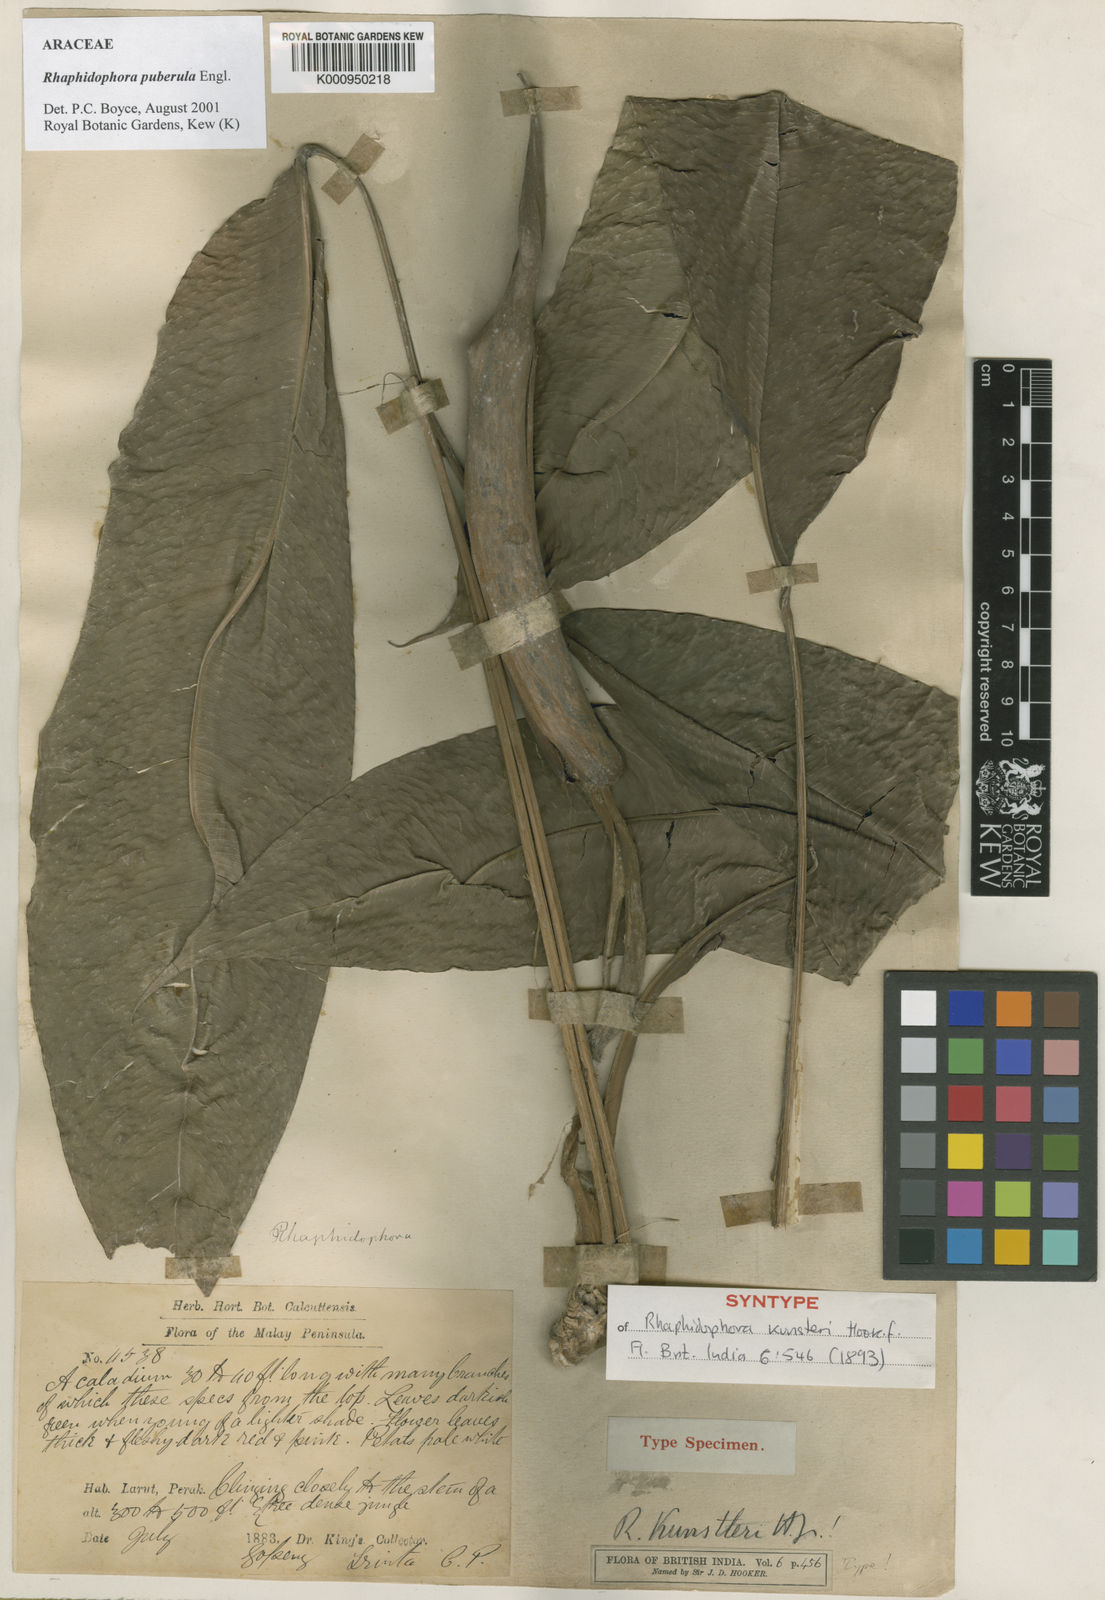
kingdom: Plantae
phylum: Tracheophyta
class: Liliopsida
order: Alismatales
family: Araceae
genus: Rhaphidophora
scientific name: Rhaphidophora puberula
